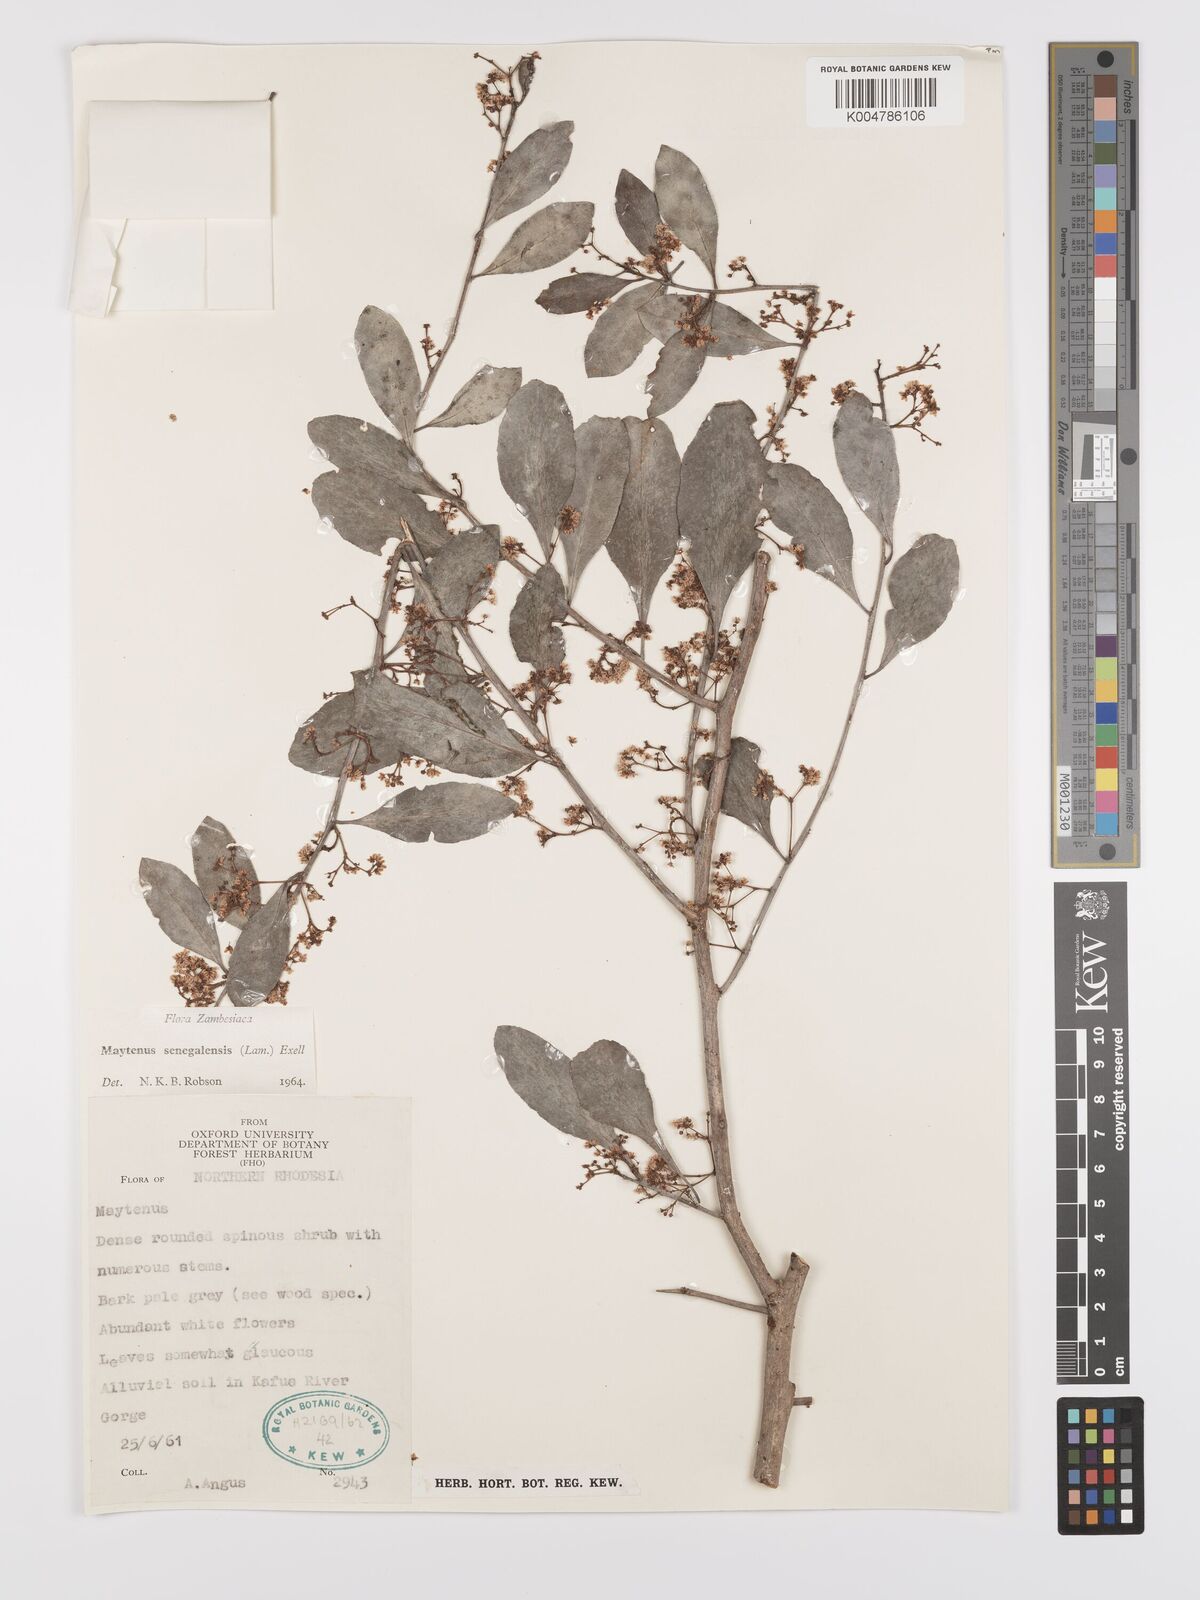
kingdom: Plantae
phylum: Tracheophyta
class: Magnoliopsida
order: Celastrales
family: Celastraceae
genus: Gymnosporia
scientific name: Gymnosporia senegalensis
